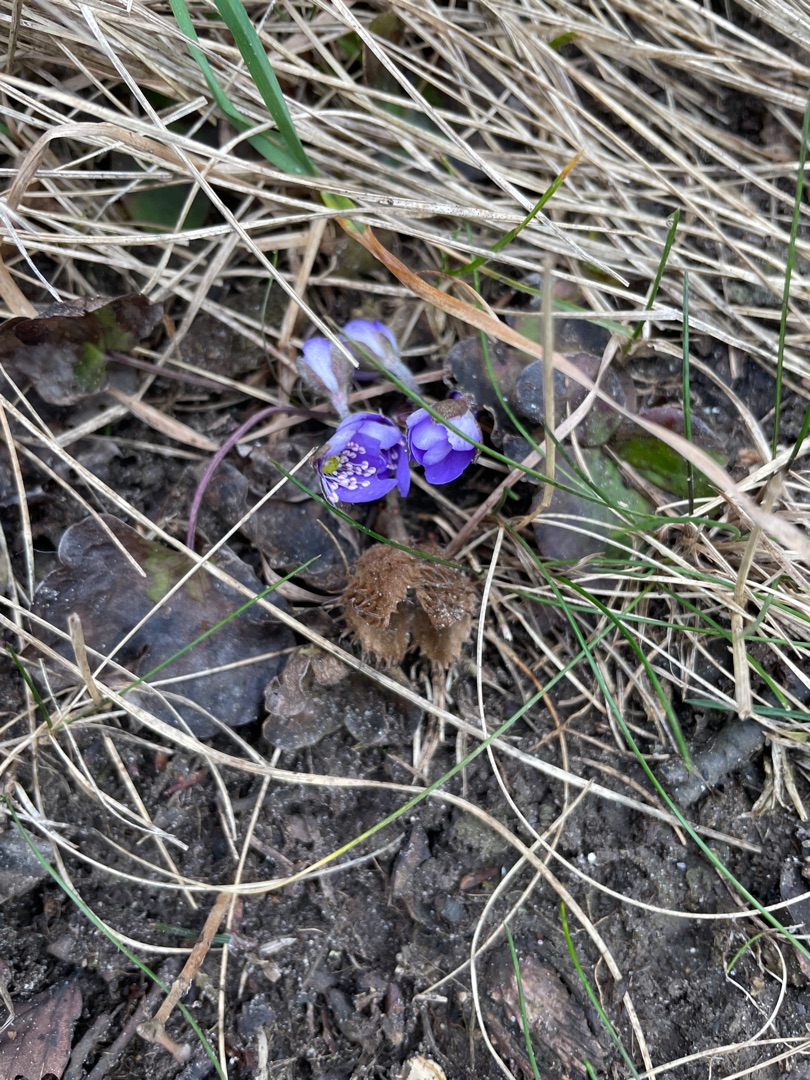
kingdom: Plantae
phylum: Tracheophyta
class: Magnoliopsida
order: Ranunculales
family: Ranunculaceae
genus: Hepatica
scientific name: Hepatica nobilis
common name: Blå anemone
